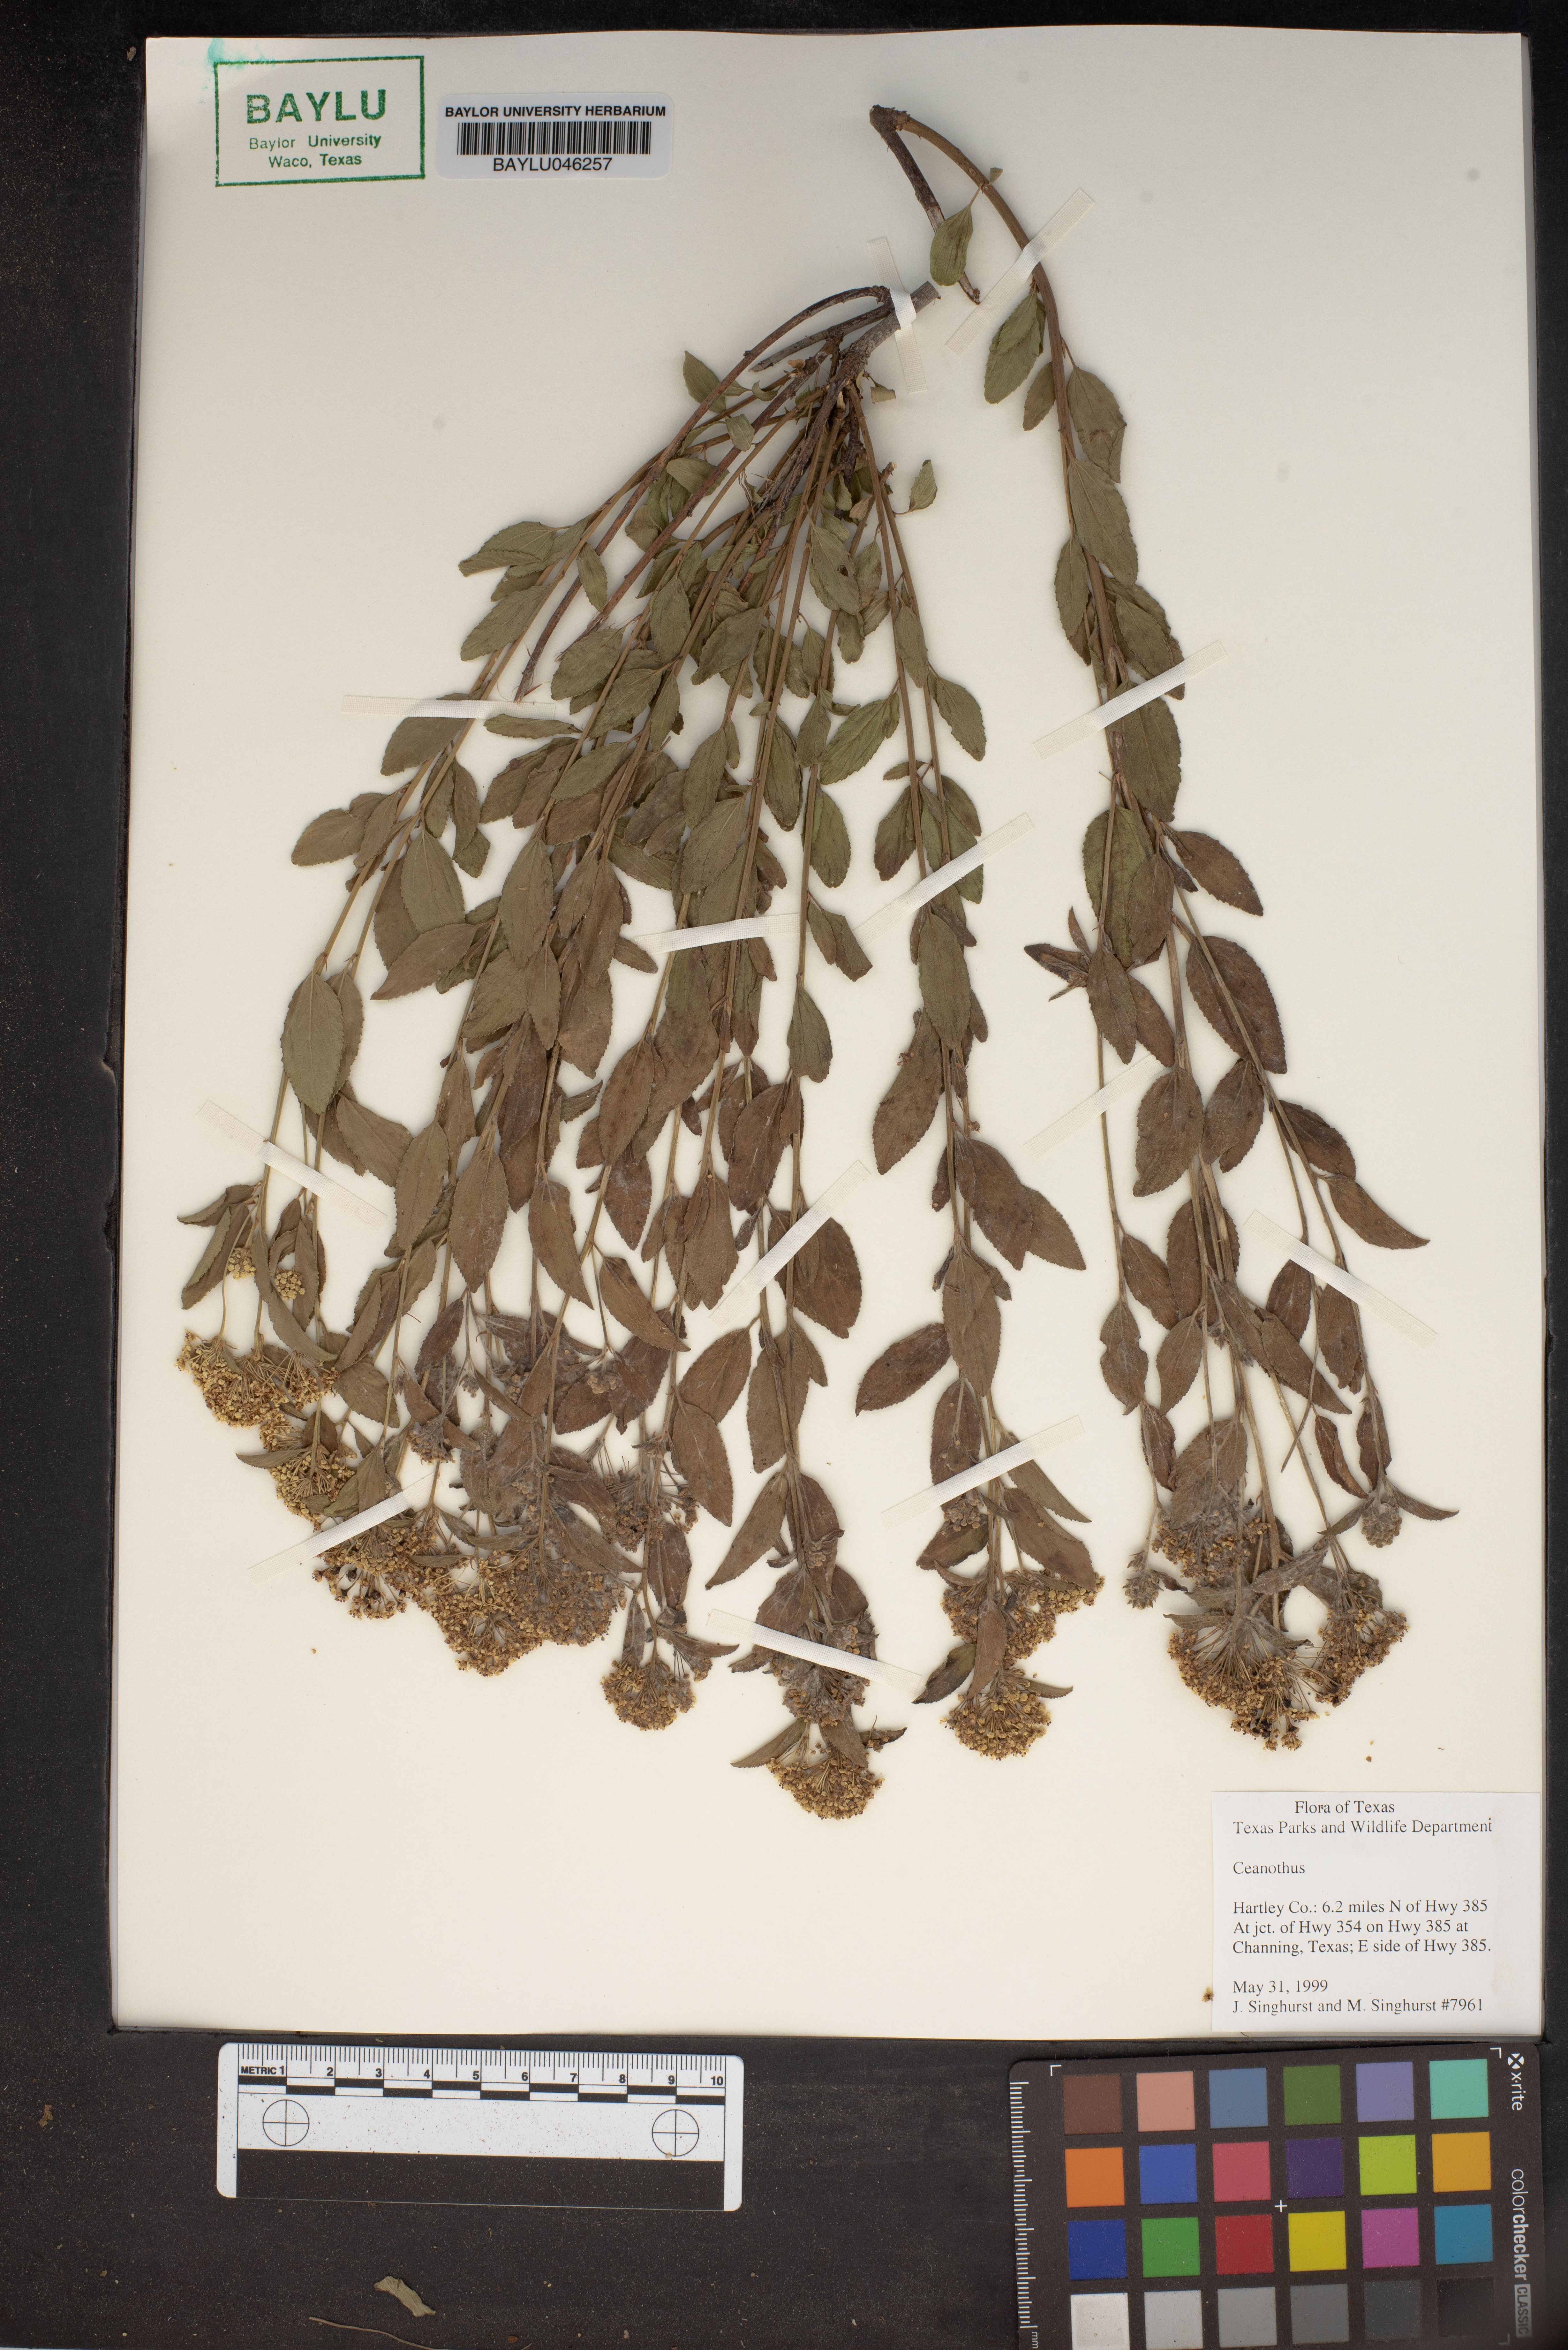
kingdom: Plantae
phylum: Tracheophyta
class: Magnoliopsida
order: Rosales
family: Rhamnaceae
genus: Ceanothus
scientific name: Ceanothus
